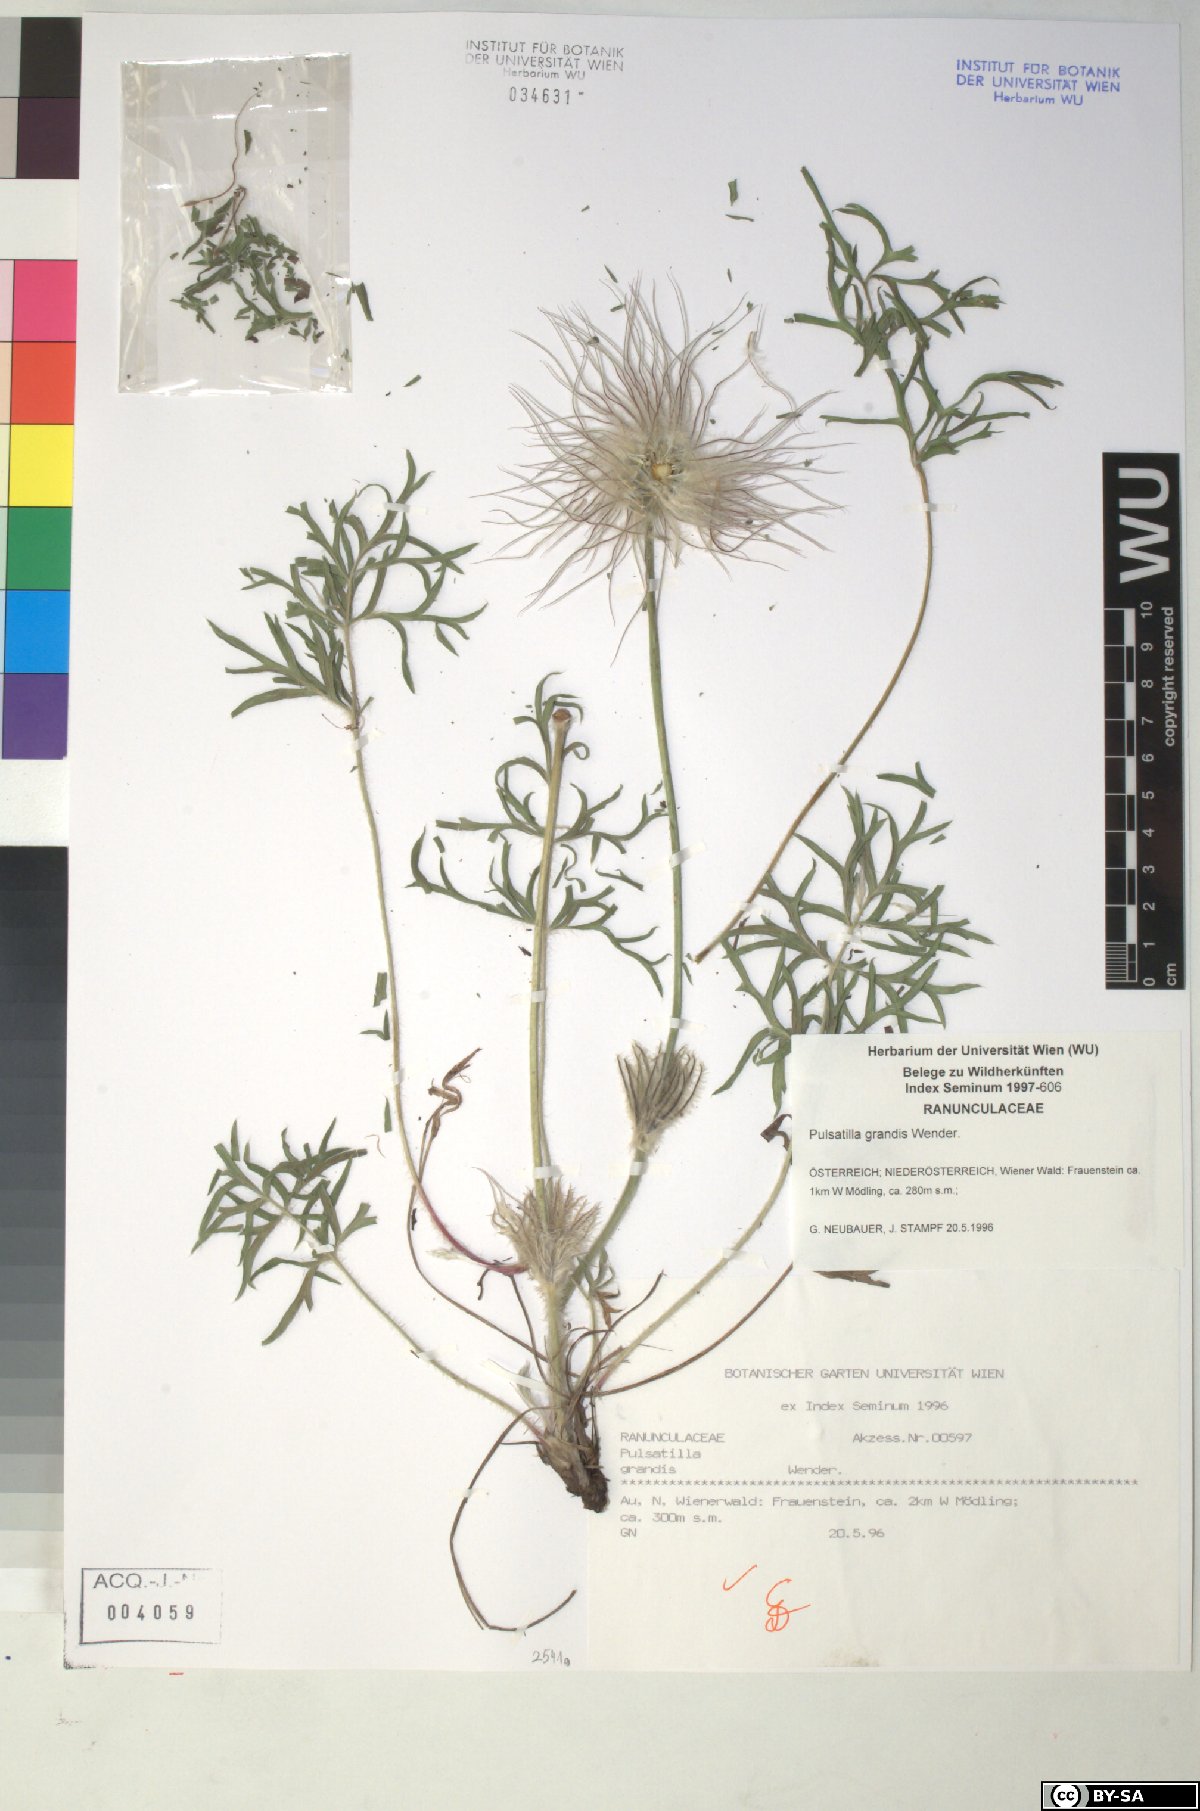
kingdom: Plantae
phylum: Tracheophyta
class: Magnoliopsida
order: Ranunculales
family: Ranunculaceae
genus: Pulsatilla
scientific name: Pulsatilla grandis
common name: Greater pasque flower
